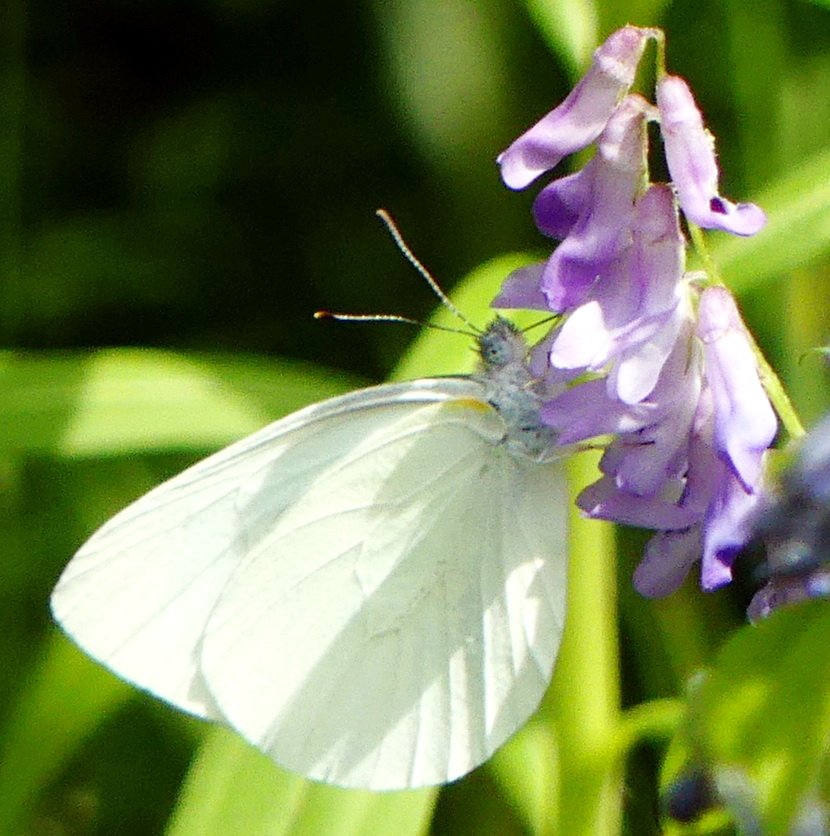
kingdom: Animalia
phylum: Arthropoda
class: Insecta
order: Lepidoptera
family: Pieridae
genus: Pieris
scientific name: Pieris oleracea
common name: Mustard White
